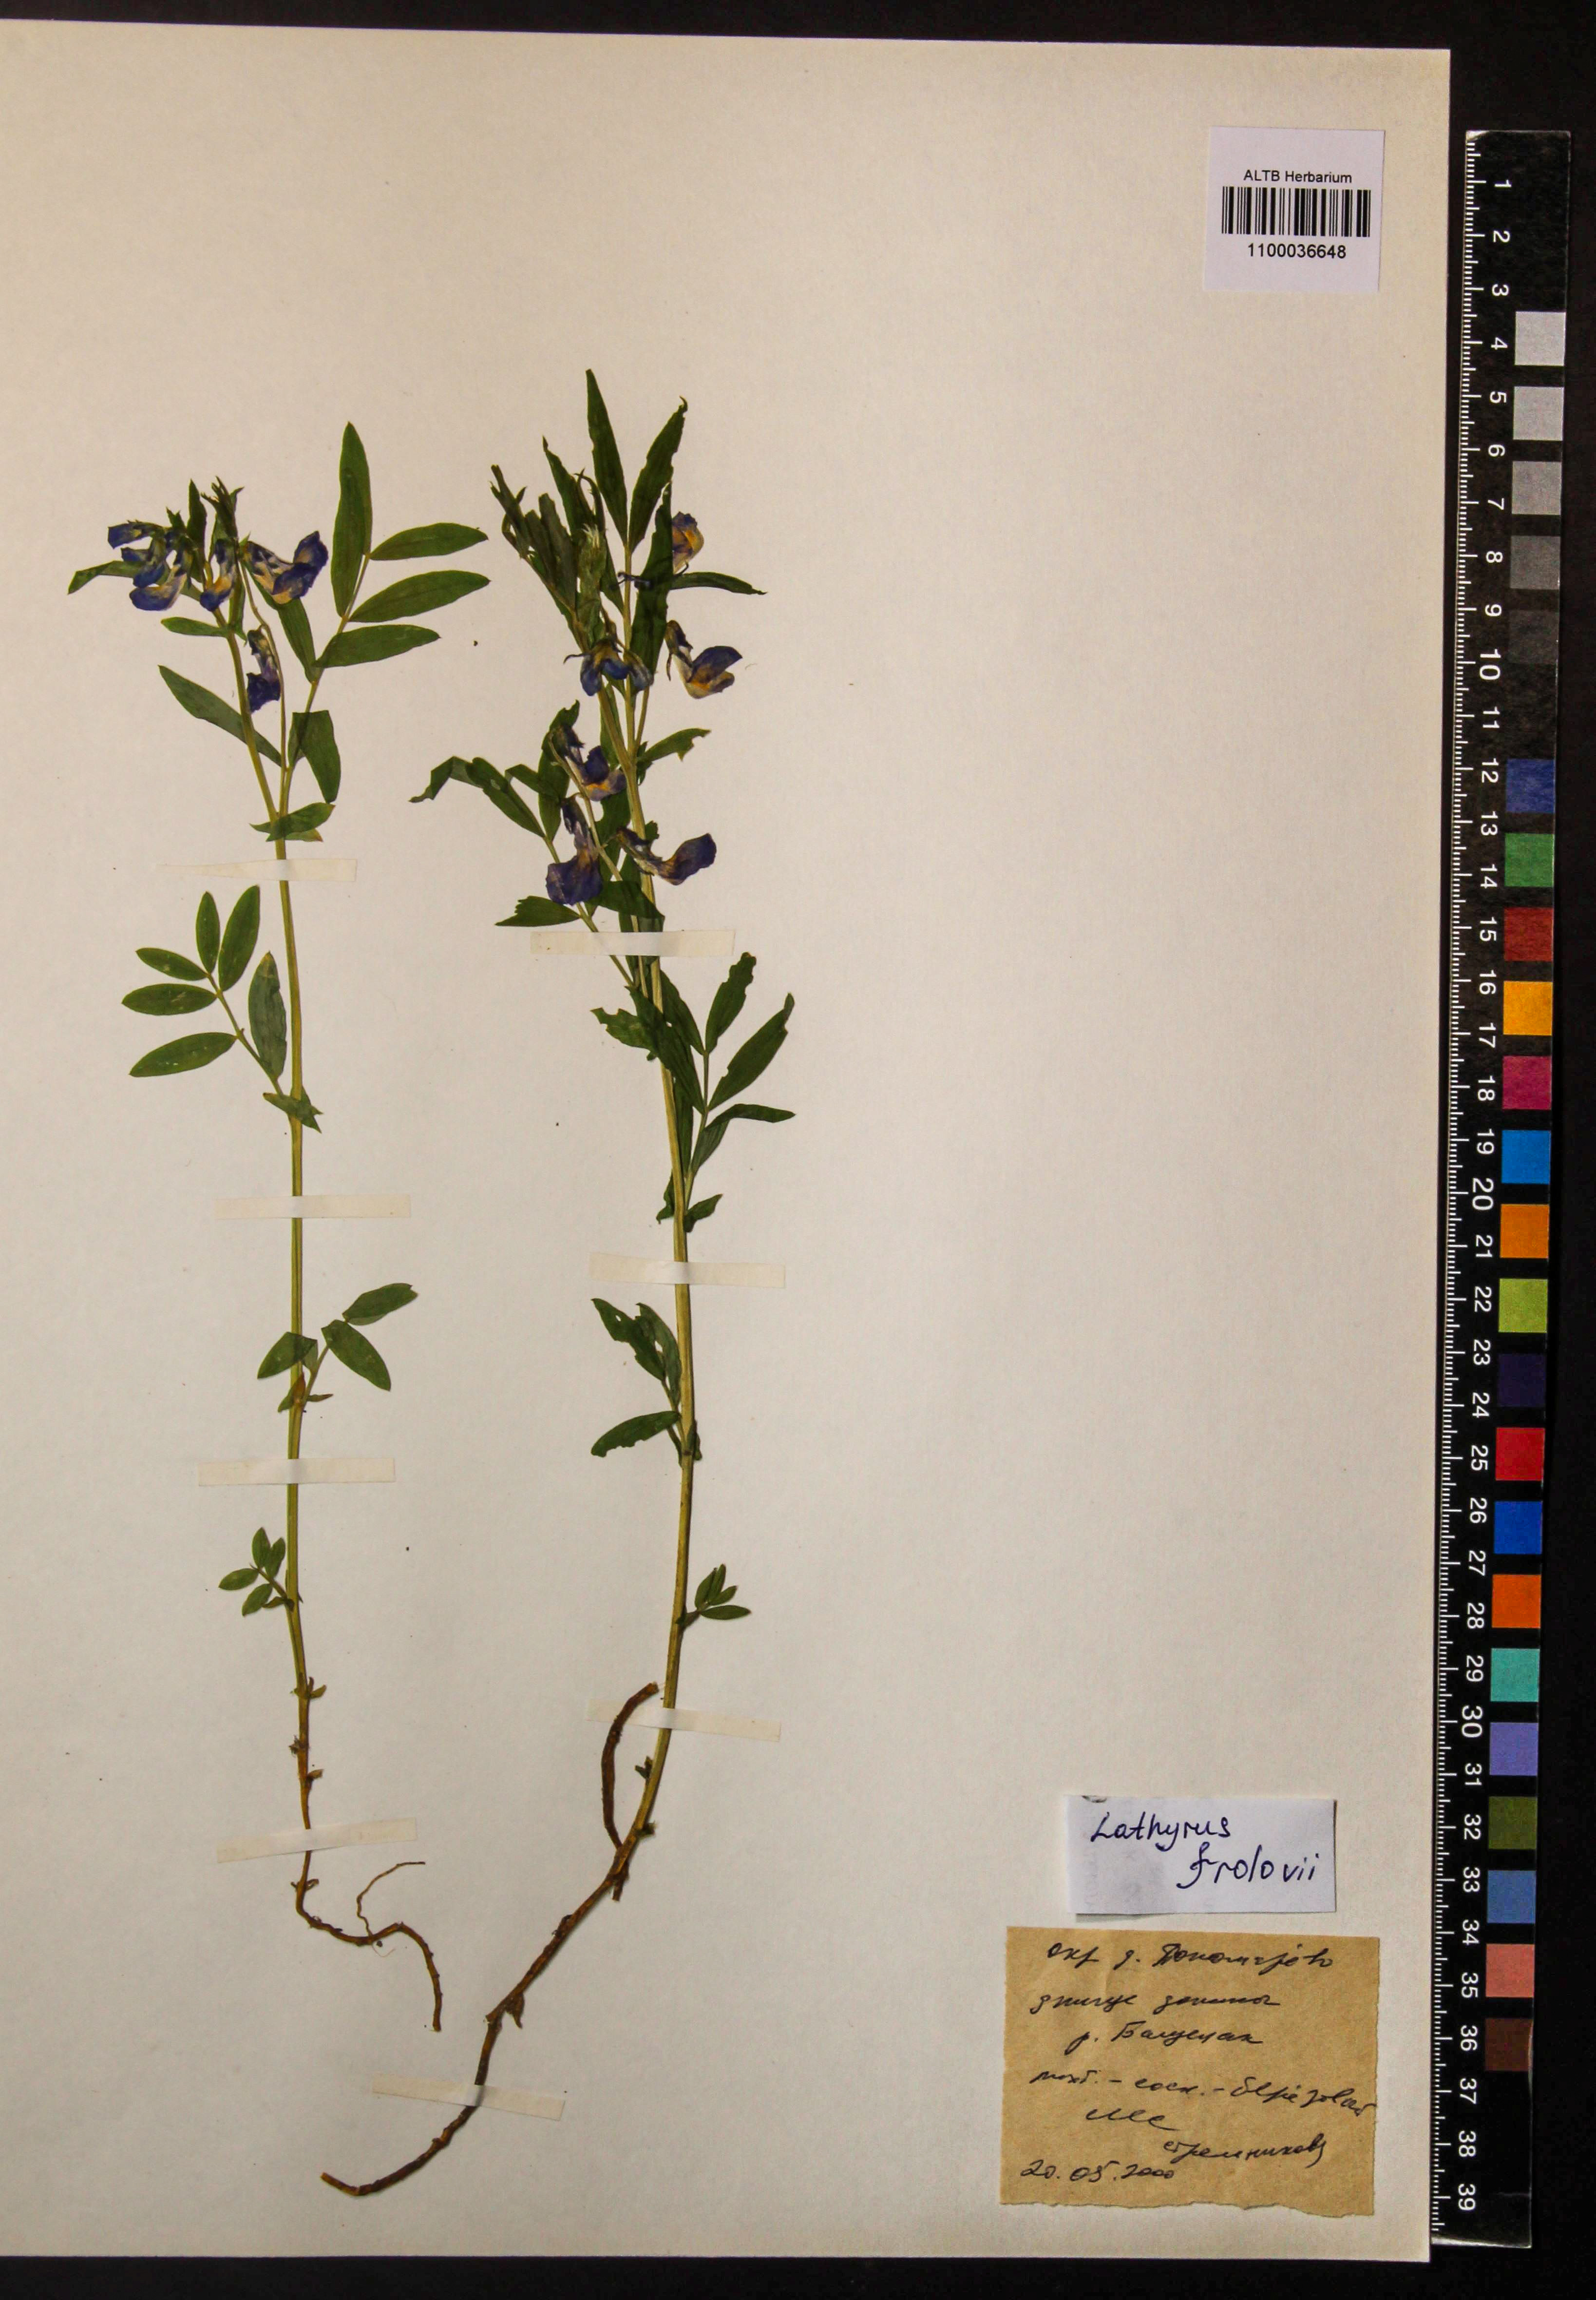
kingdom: Plantae
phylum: Tracheophyta
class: Magnoliopsida
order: Fabales
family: Fabaceae
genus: Lathyrus
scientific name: Lathyrus frolovii
